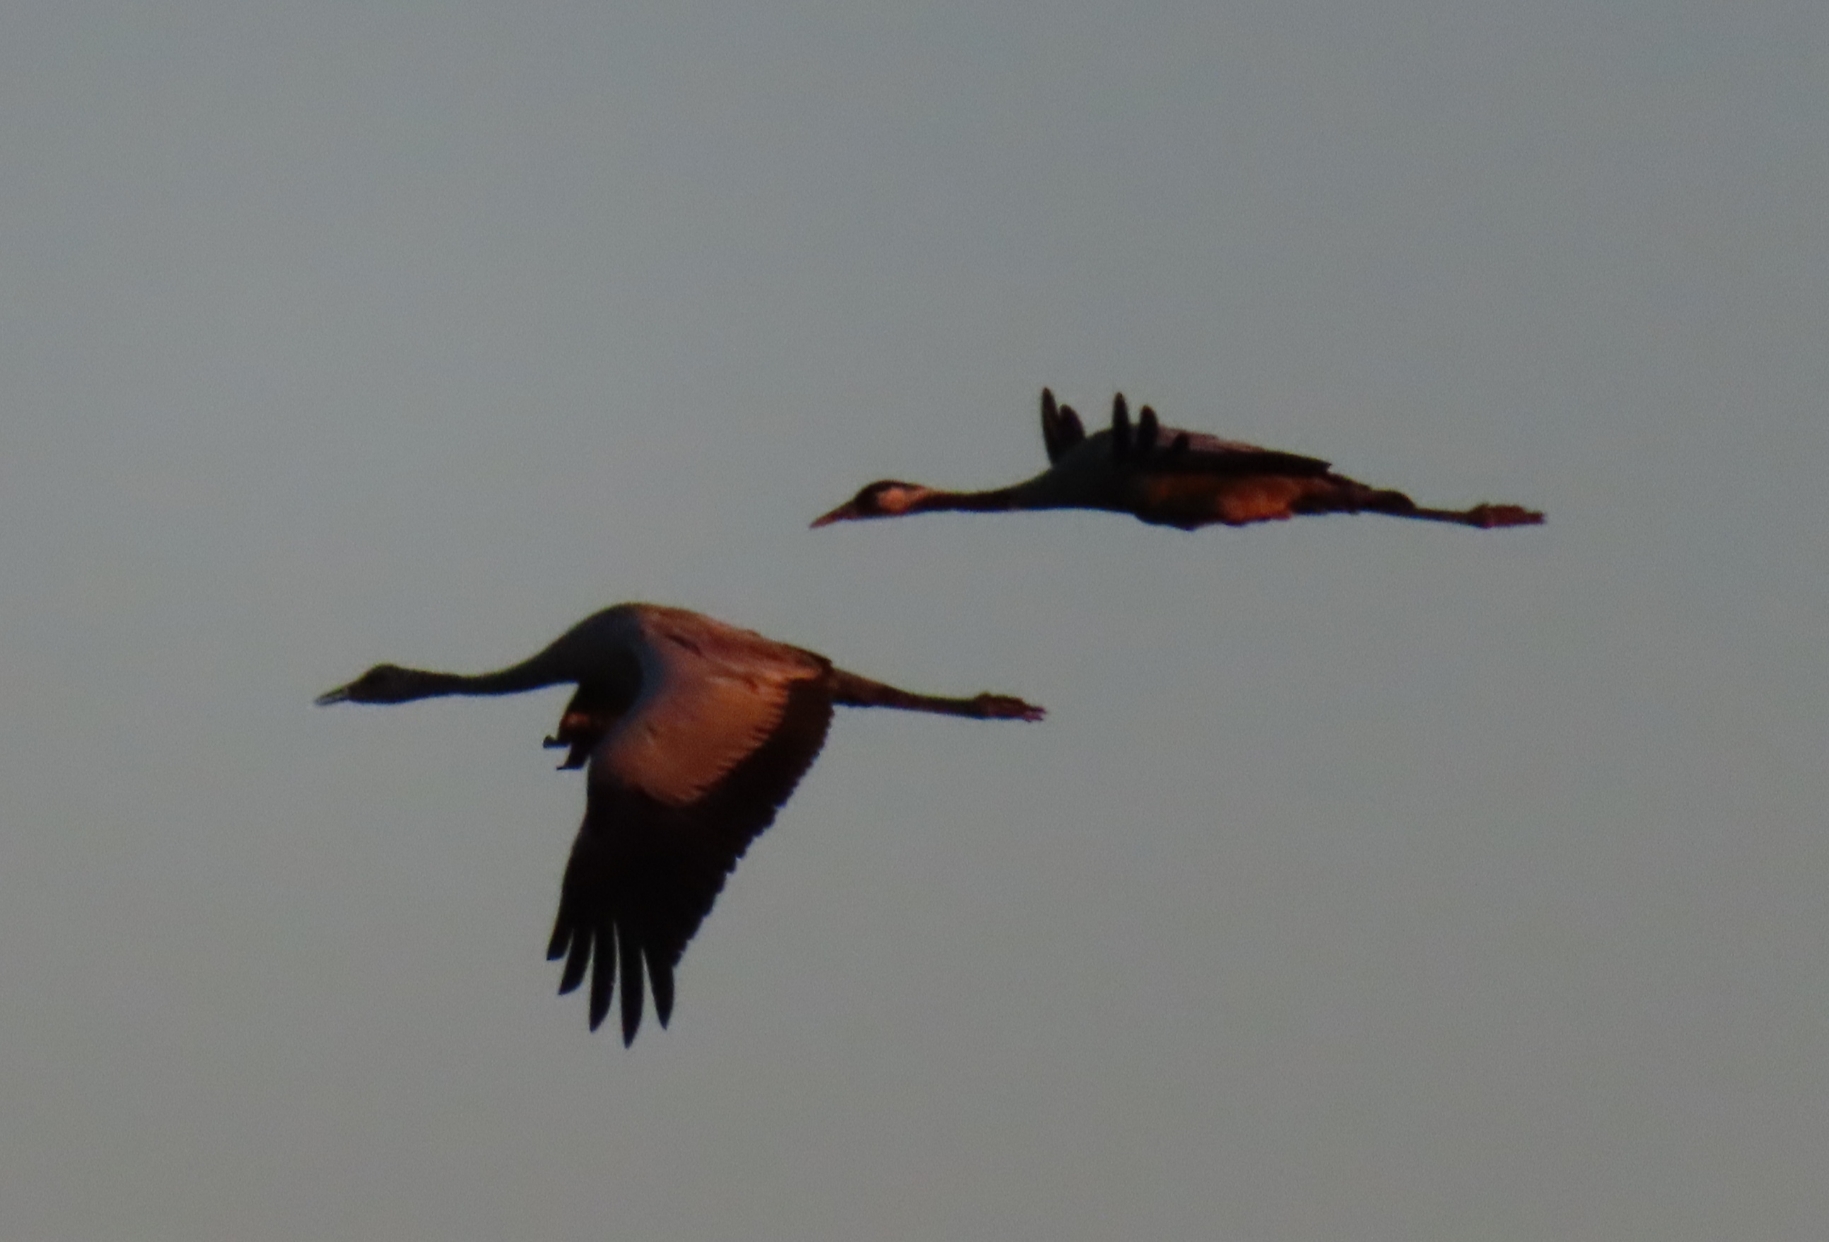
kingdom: Animalia
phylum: Chordata
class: Aves
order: Gruiformes
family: Gruidae
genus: Grus
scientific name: Grus grus
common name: Trane
